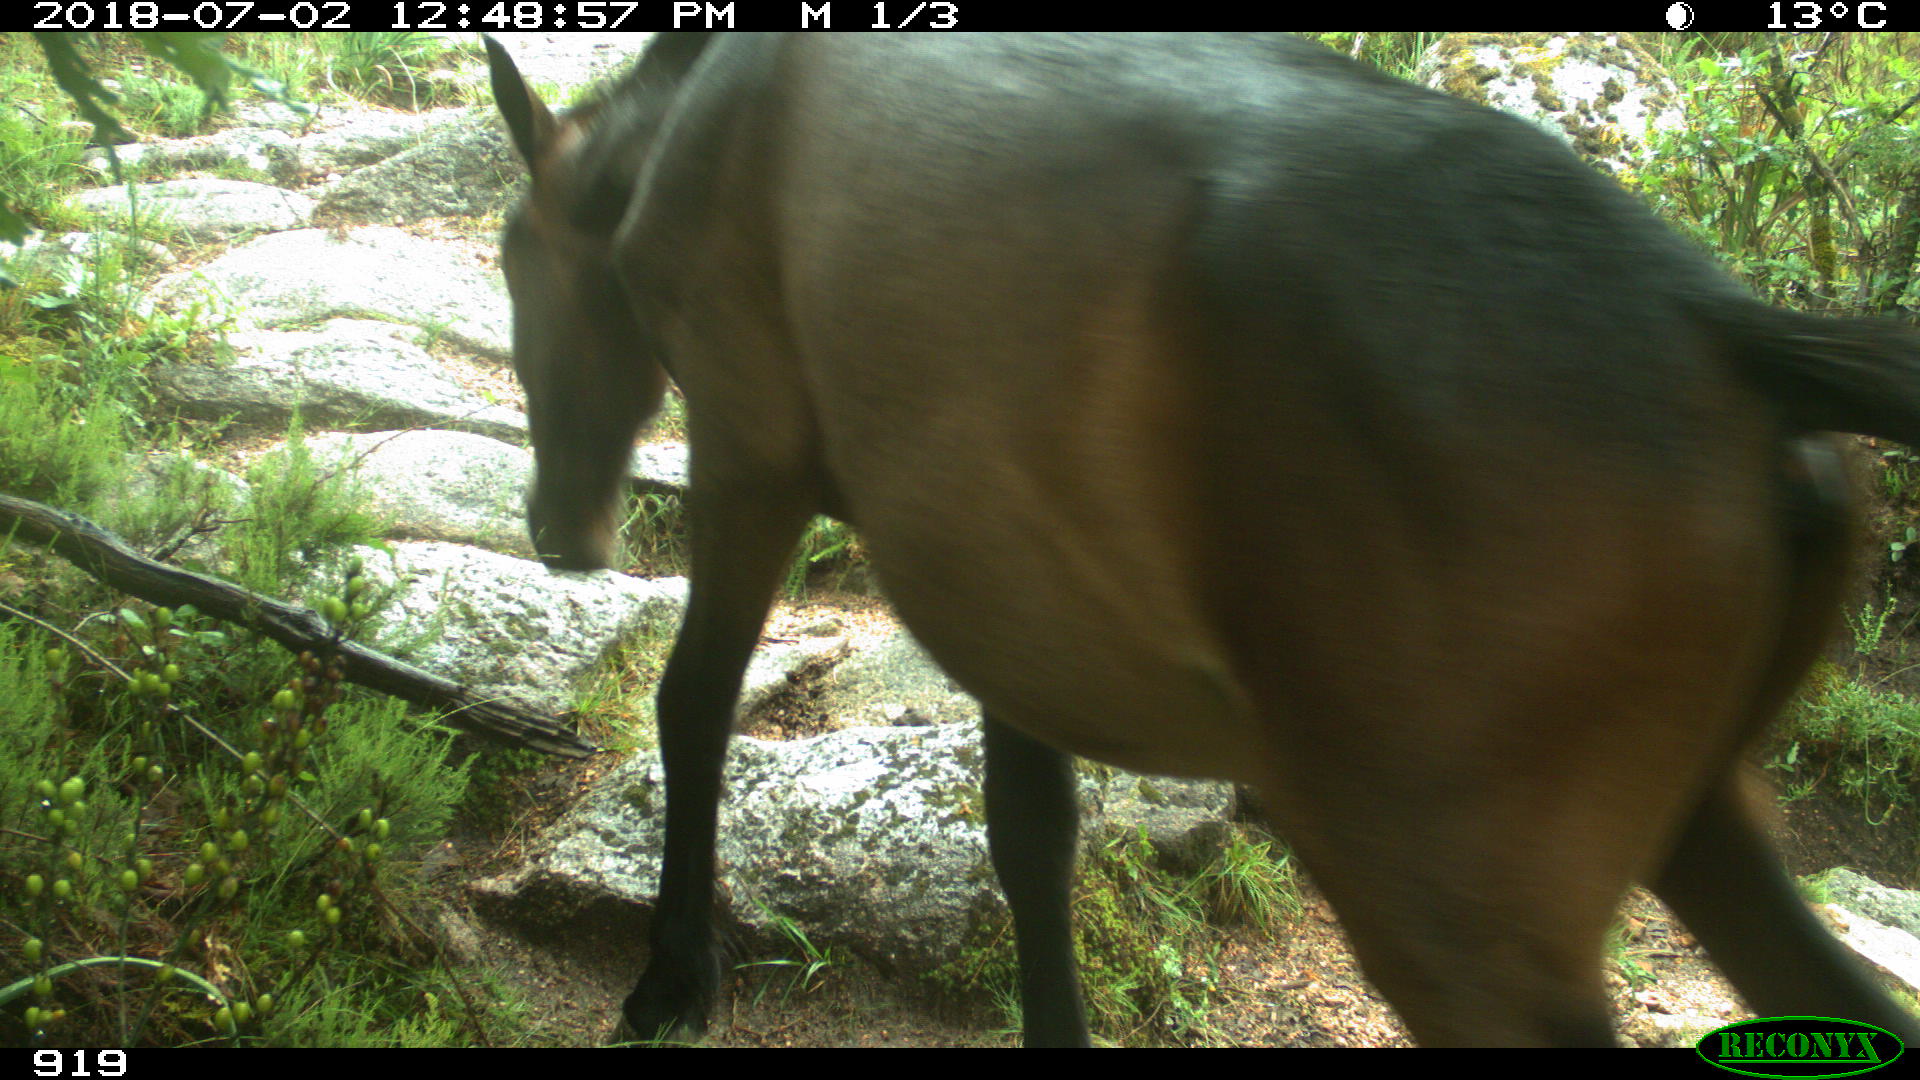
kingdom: Animalia
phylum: Chordata
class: Mammalia
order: Perissodactyla
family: Equidae
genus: Equus
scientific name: Equus caballus
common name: Horse
